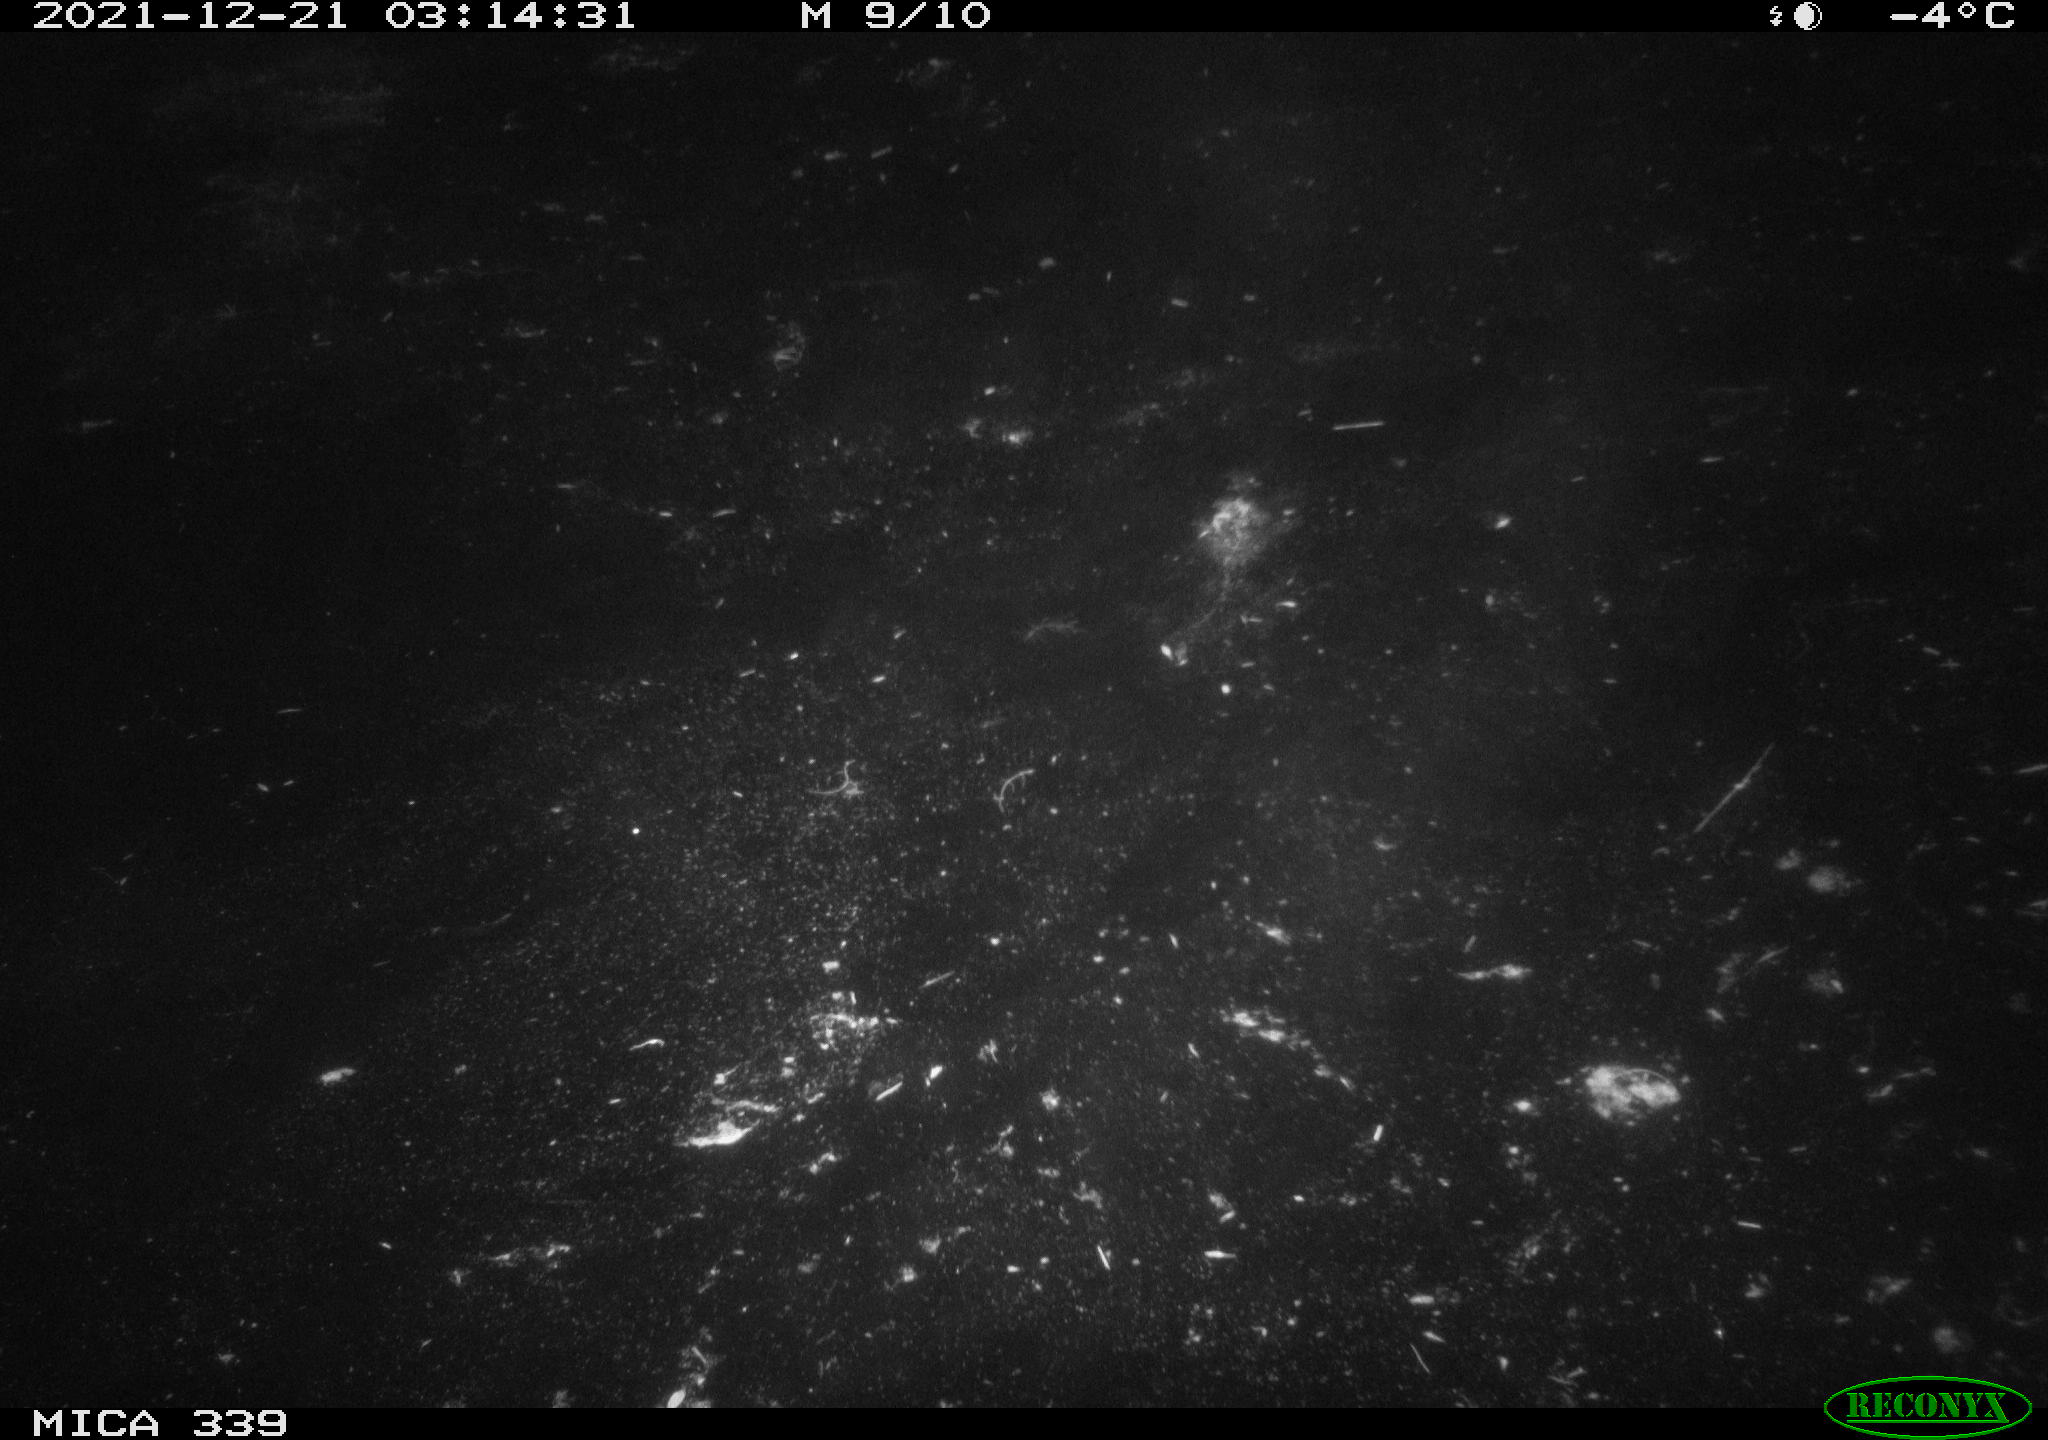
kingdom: Animalia
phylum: Chordata
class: Aves
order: Anseriformes
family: Anatidae
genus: Anas
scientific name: Anas platyrhynchos
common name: Mallard
